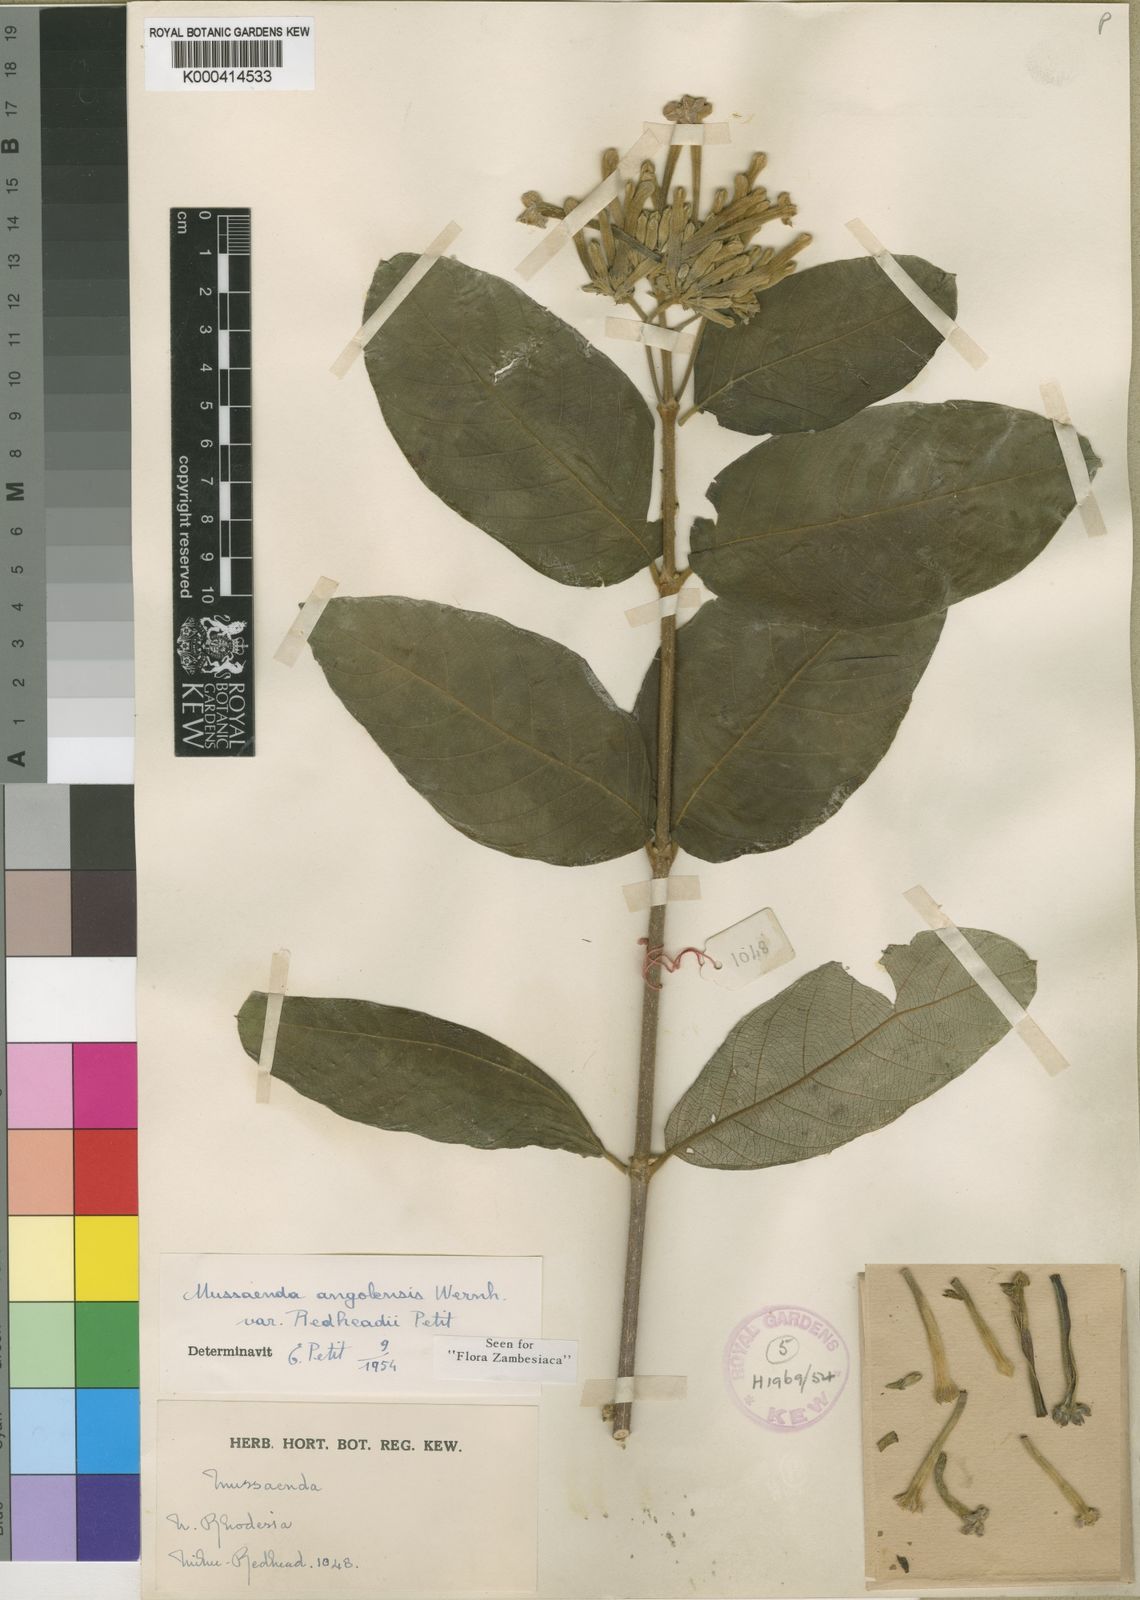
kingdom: Plantae
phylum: Tracheophyta
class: Magnoliopsida
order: Gentianales
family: Rubiaceae
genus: Mussaenda
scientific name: Mussaenda rivularis
